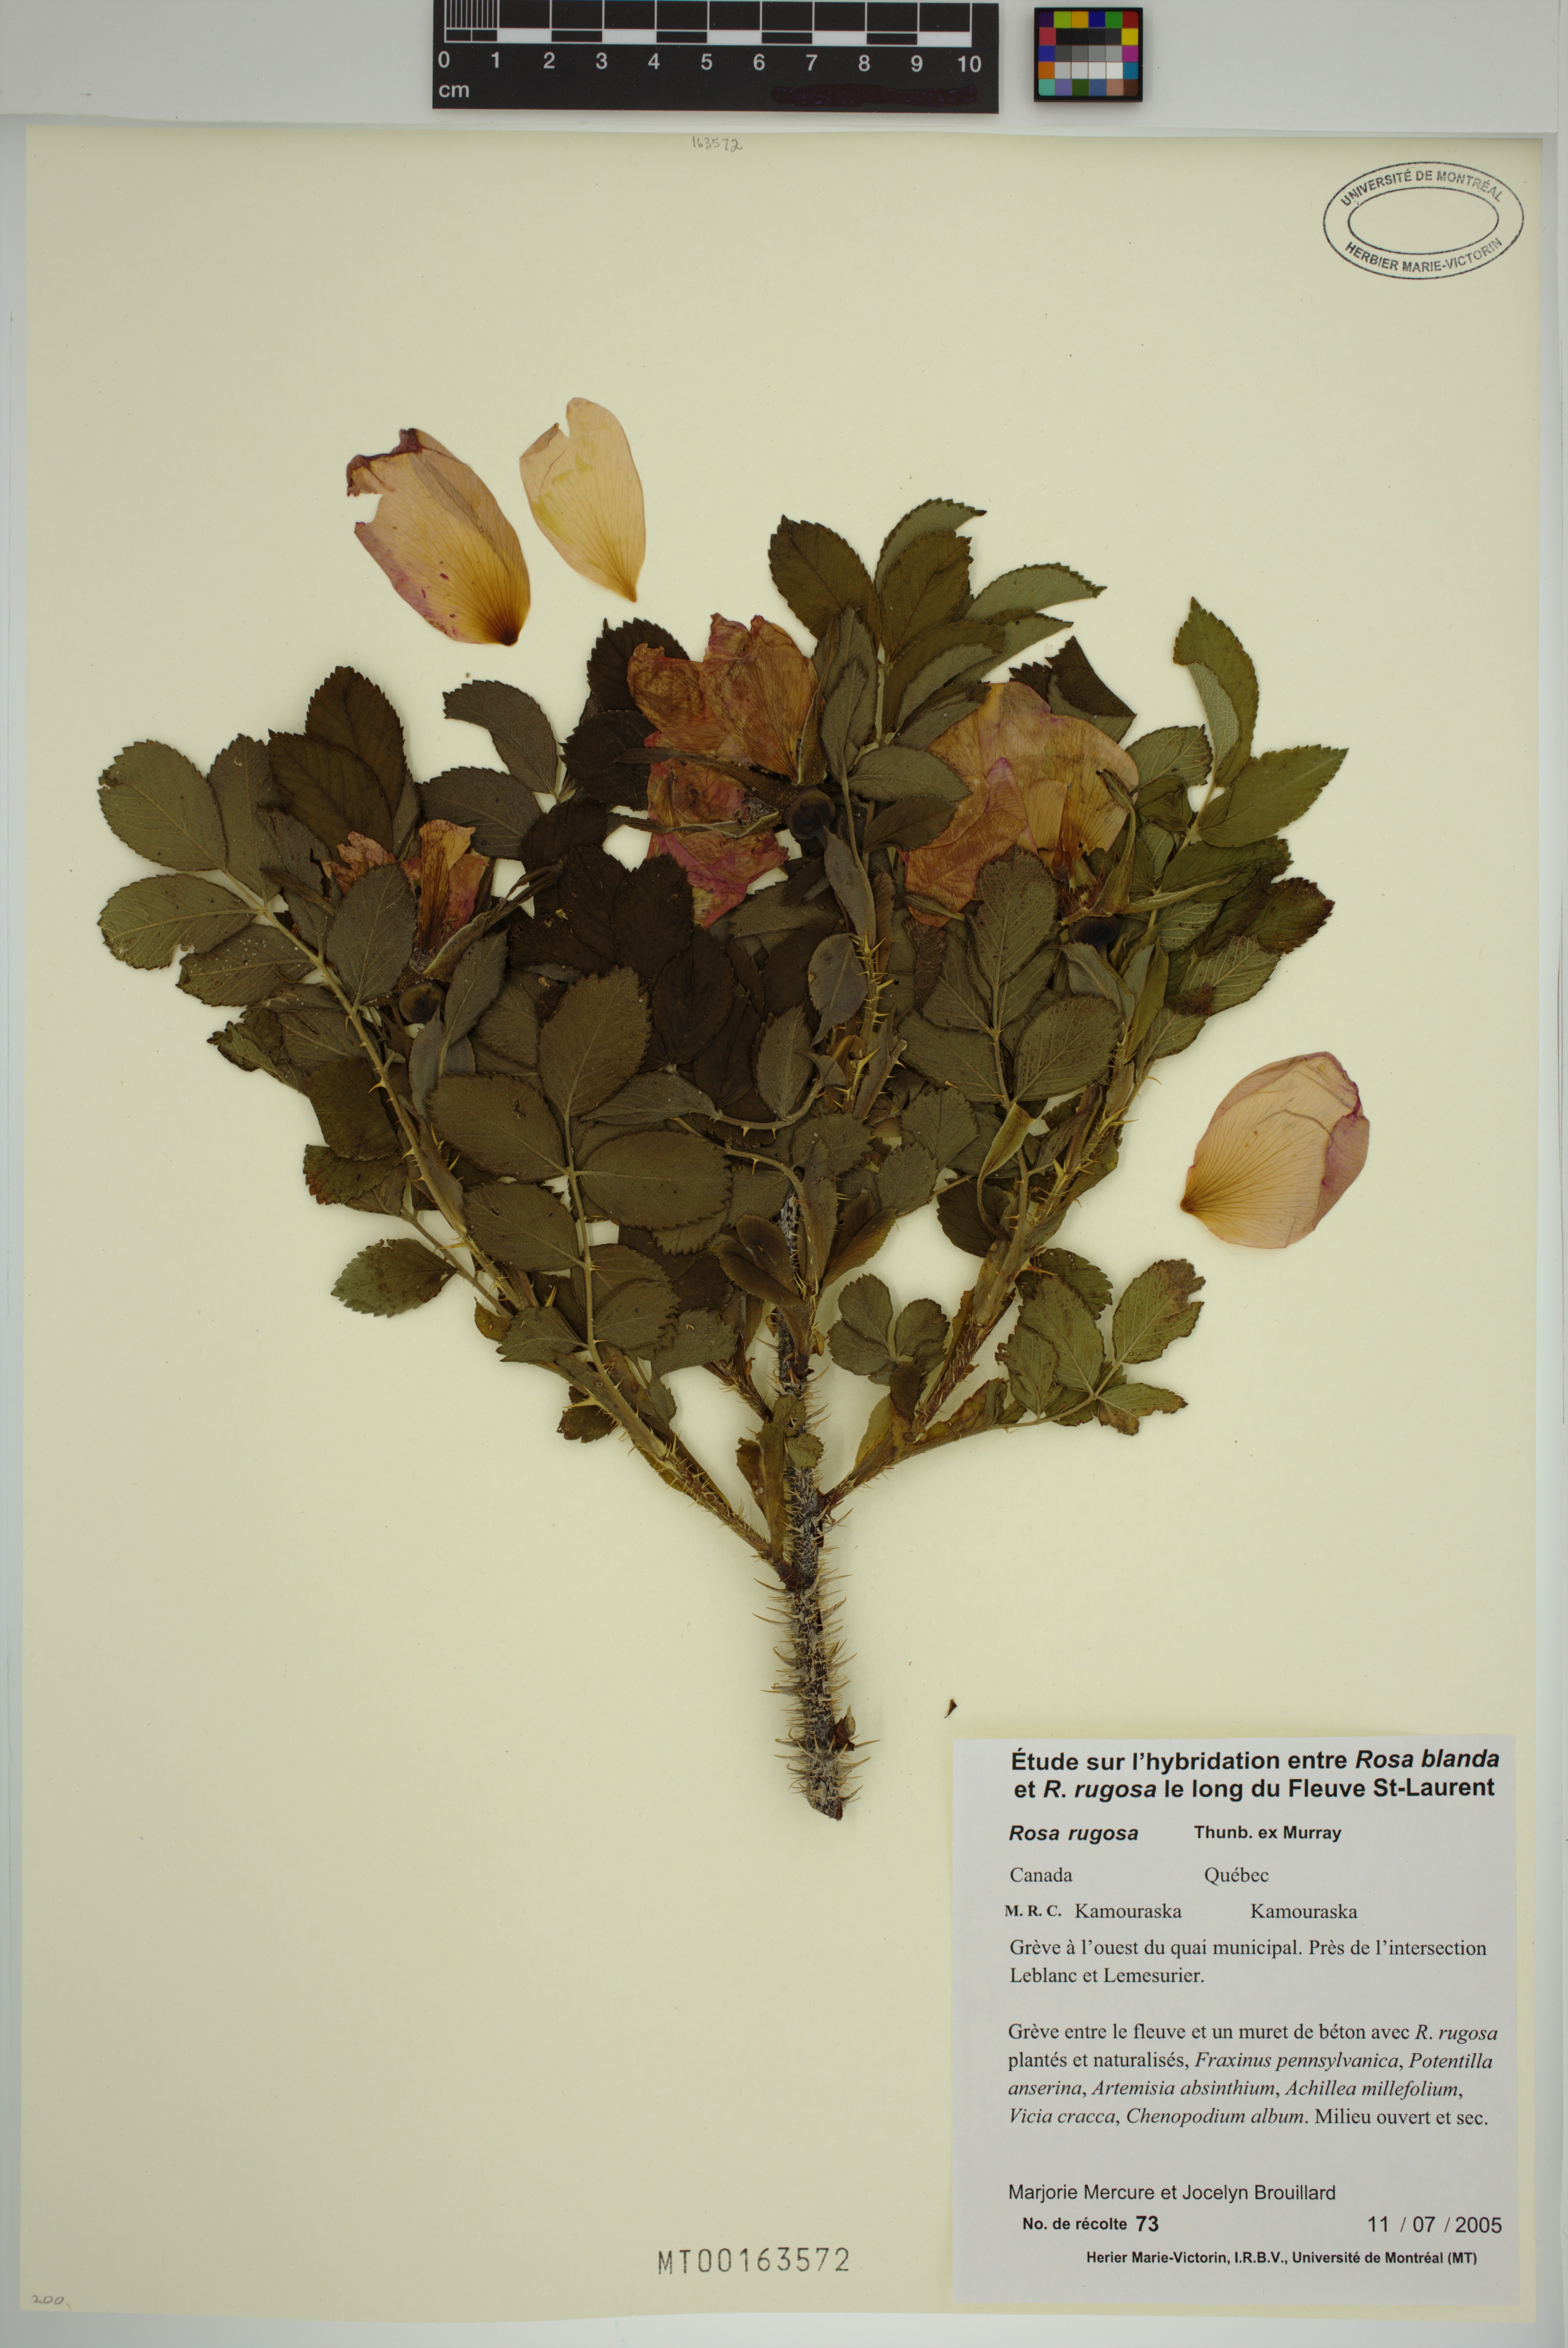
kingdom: Plantae
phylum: Tracheophyta
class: Magnoliopsida
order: Rosales
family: Rosaceae
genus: Rosa
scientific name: Rosa rugosa
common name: Japanese rose
